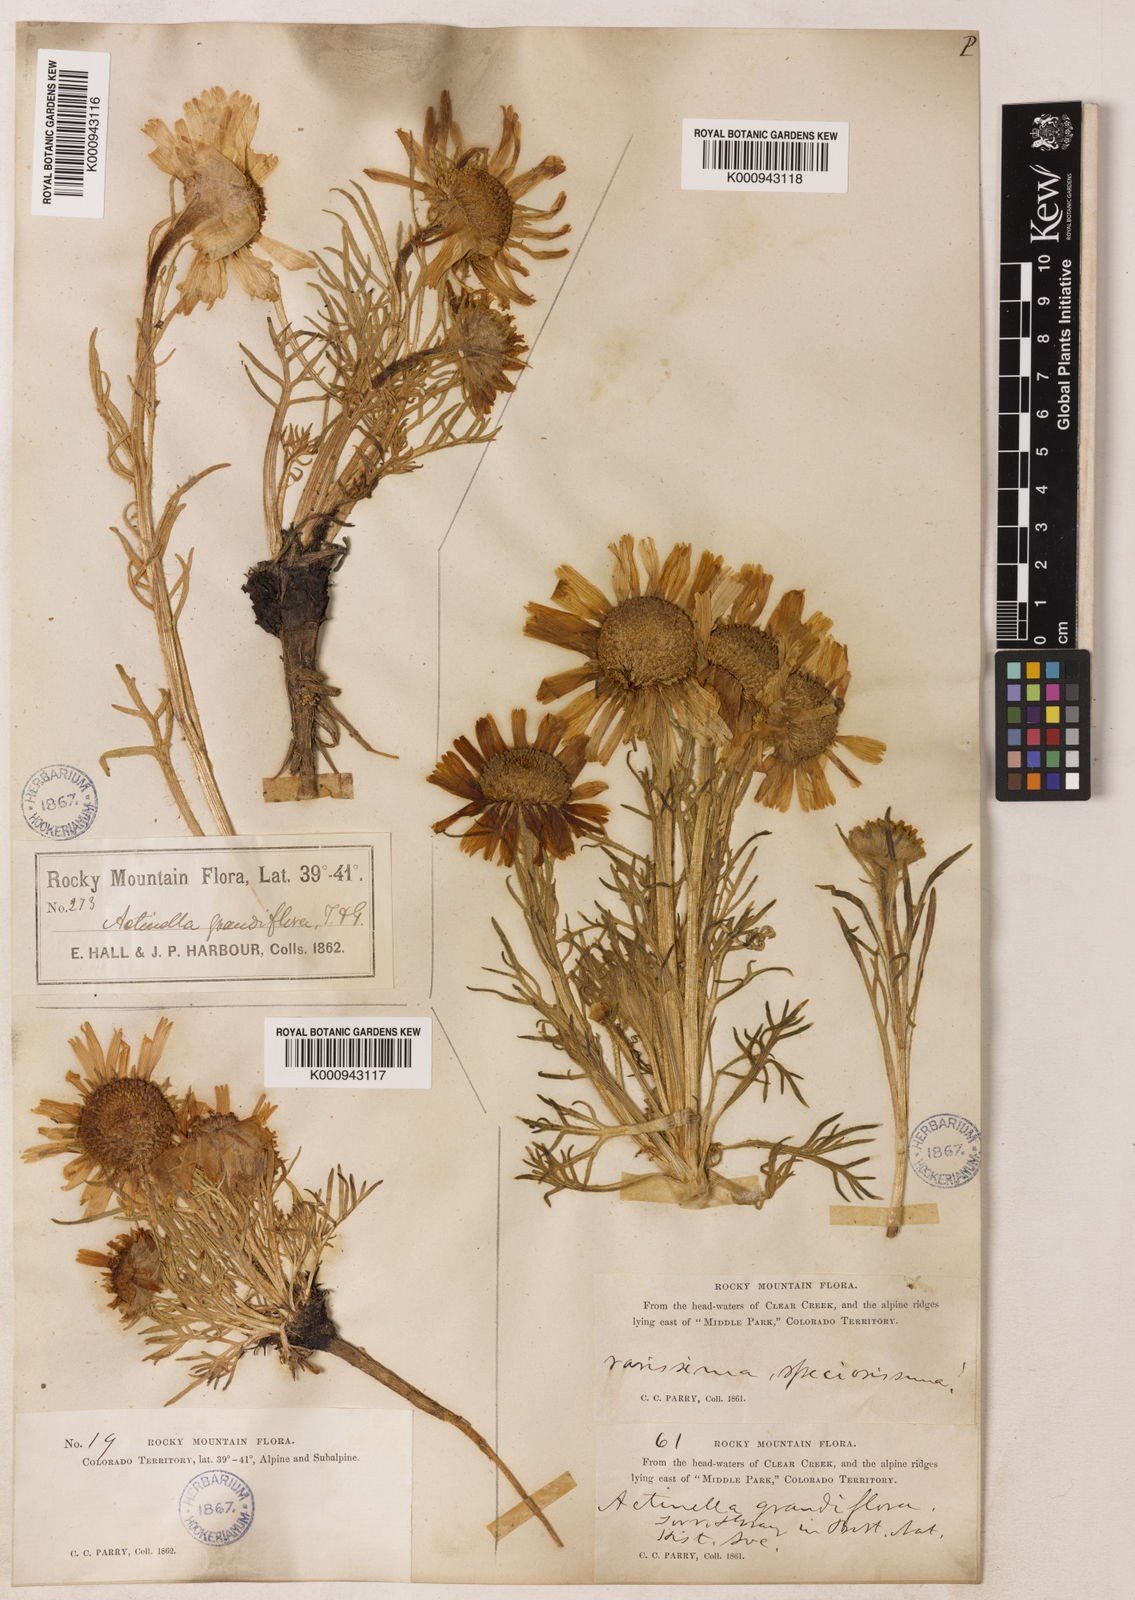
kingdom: Plantae
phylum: Tracheophyta
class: Magnoliopsida
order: Asterales
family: Asteraceae
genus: Hymenoxys
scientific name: Hymenoxys grandiflora
